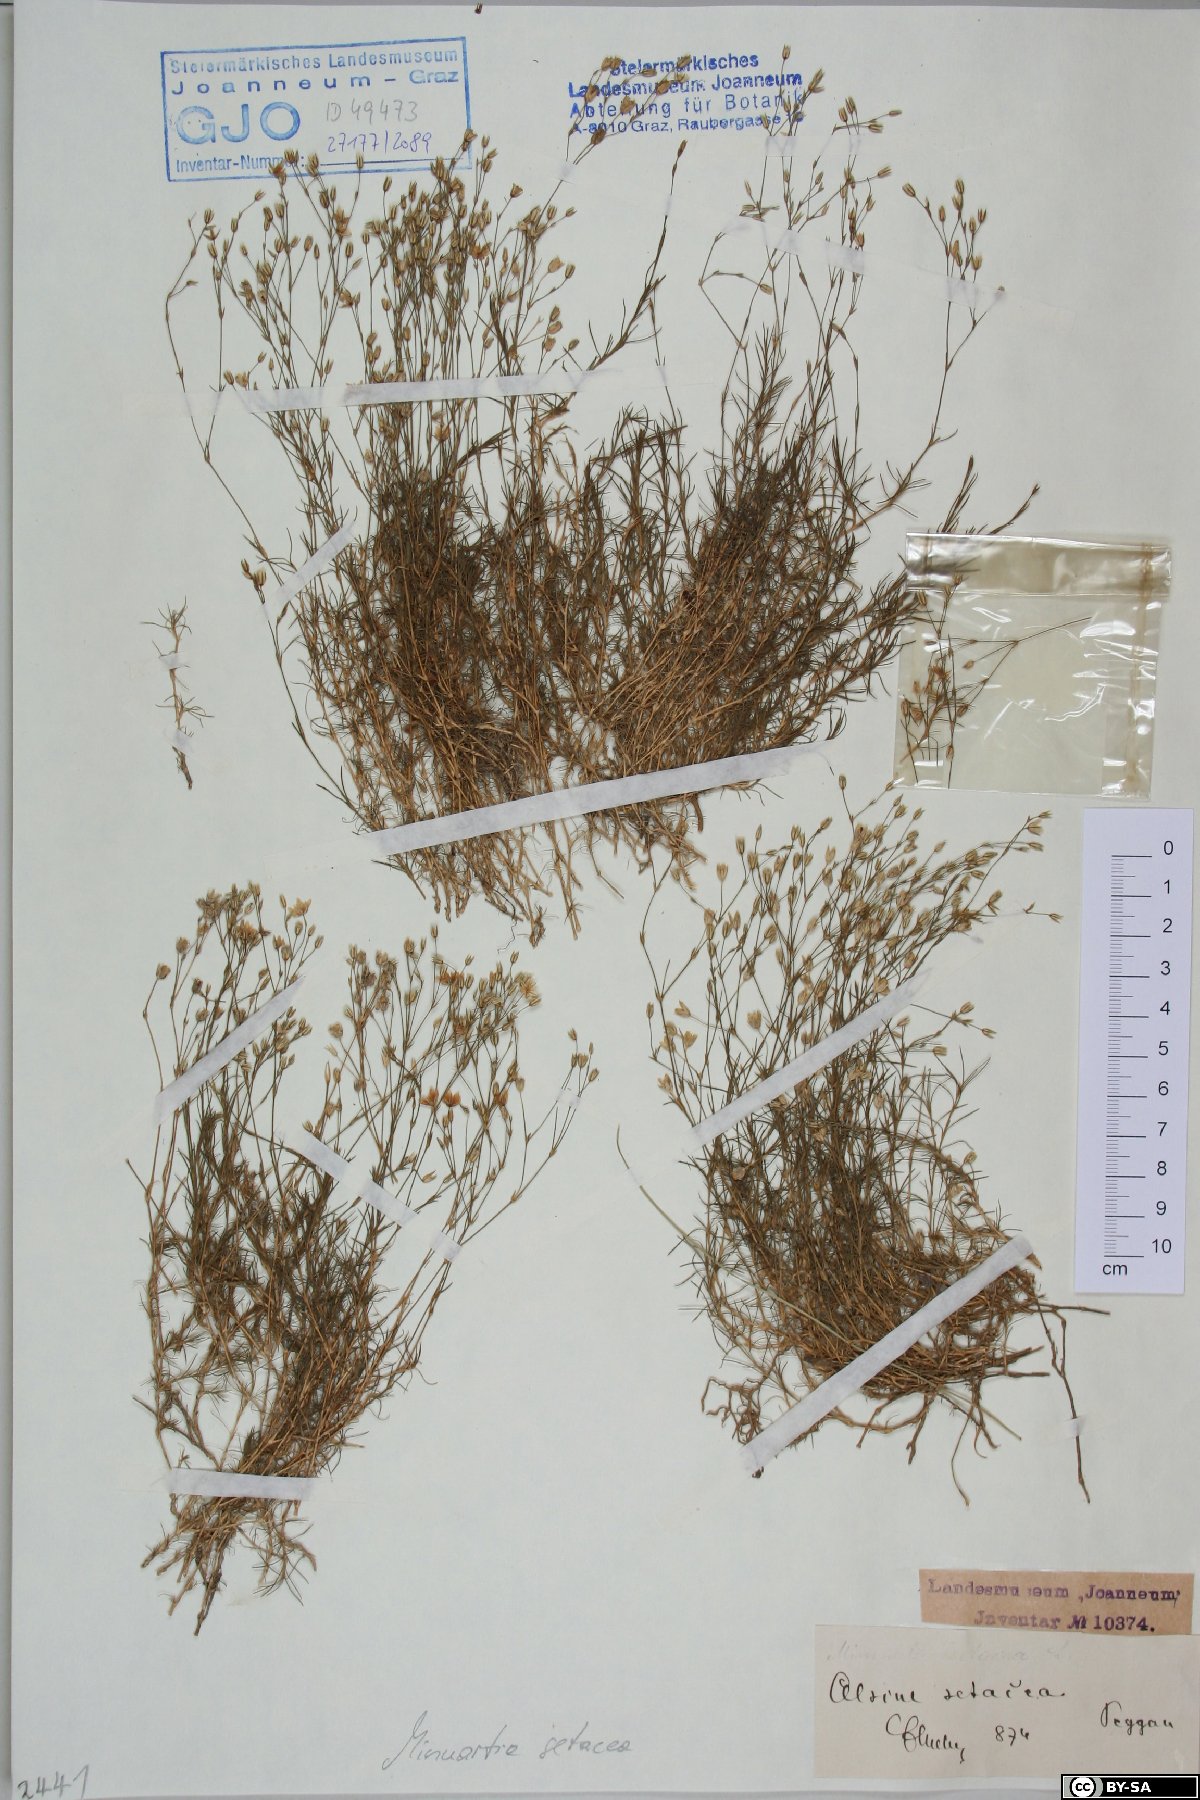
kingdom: Plantae
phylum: Tracheophyta
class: Magnoliopsida
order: Caryophyllales
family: Caryophyllaceae
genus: Minuartia
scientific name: Minuartia setacea
